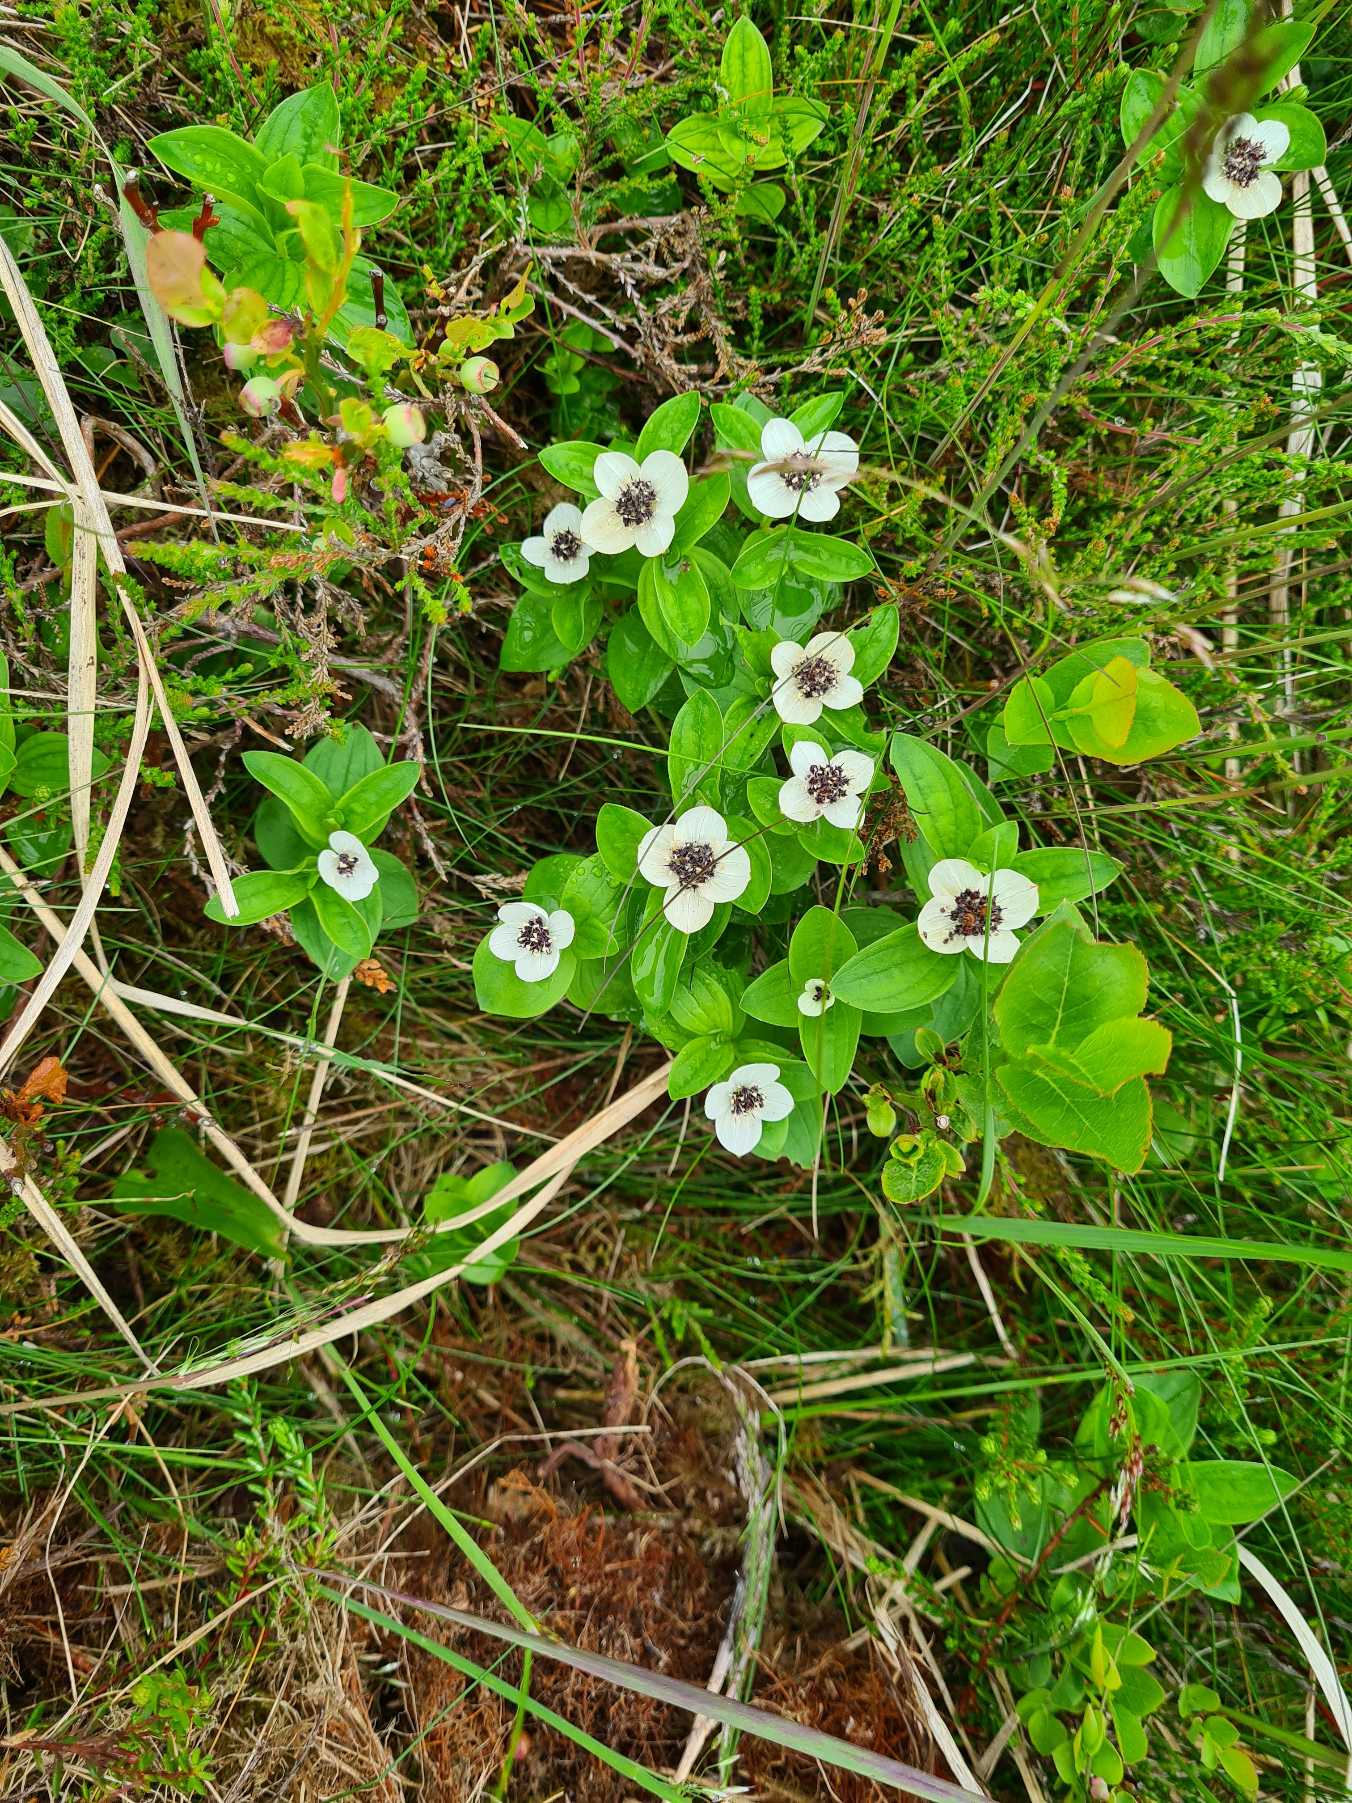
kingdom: Plantae
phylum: Tracheophyta
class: Magnoliopsida
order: Cornales
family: Cornaceae
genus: Cornus
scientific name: Cornus suecica
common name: Hønsebær
